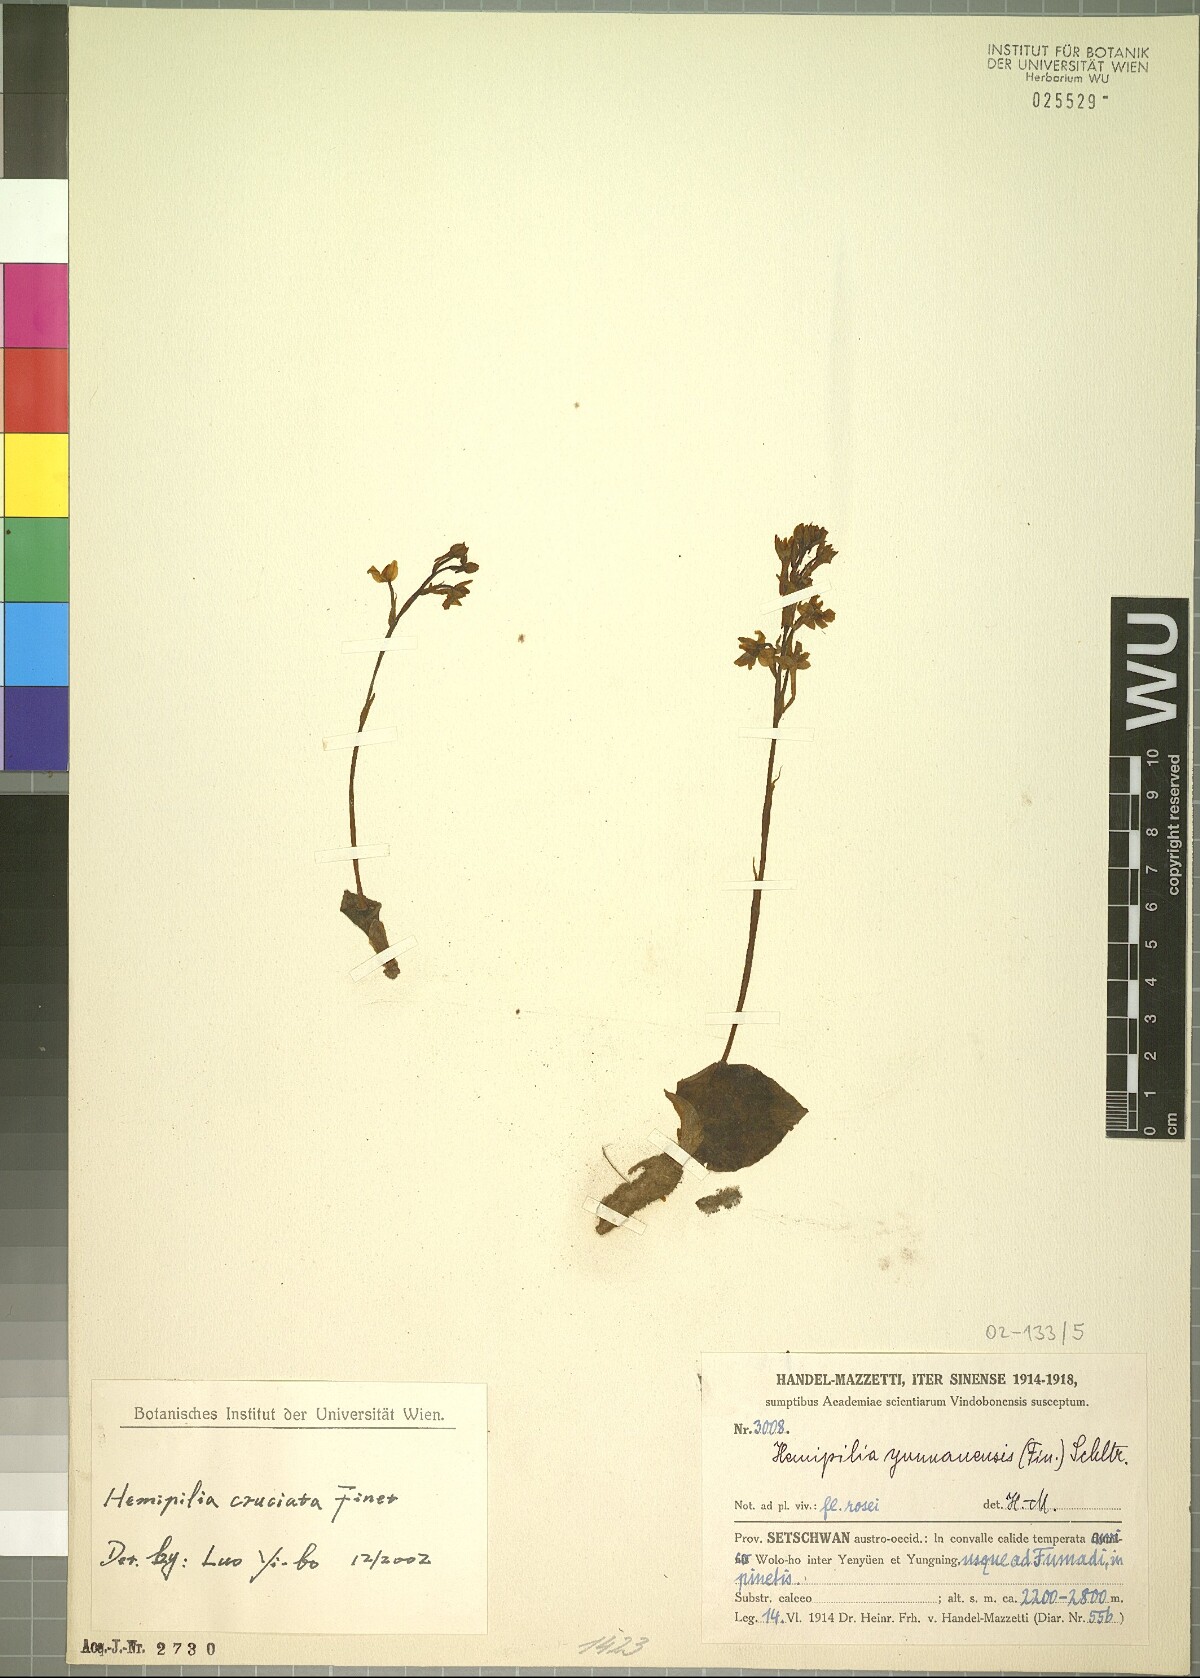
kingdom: Plantae
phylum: Tracheophyta
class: Liliopsida
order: Asparagales
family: Orchidaceae
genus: Hemipilia
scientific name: Hemipilia cordifolia
